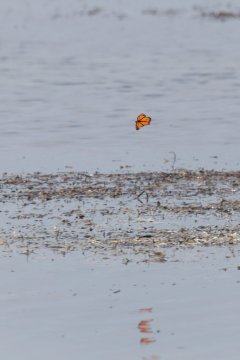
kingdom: Animalia
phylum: Arthropoda
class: Insecta
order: Lepidoptera
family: Nymphalidae
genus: Danaus
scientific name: Danaus plexippus
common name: Monarch
